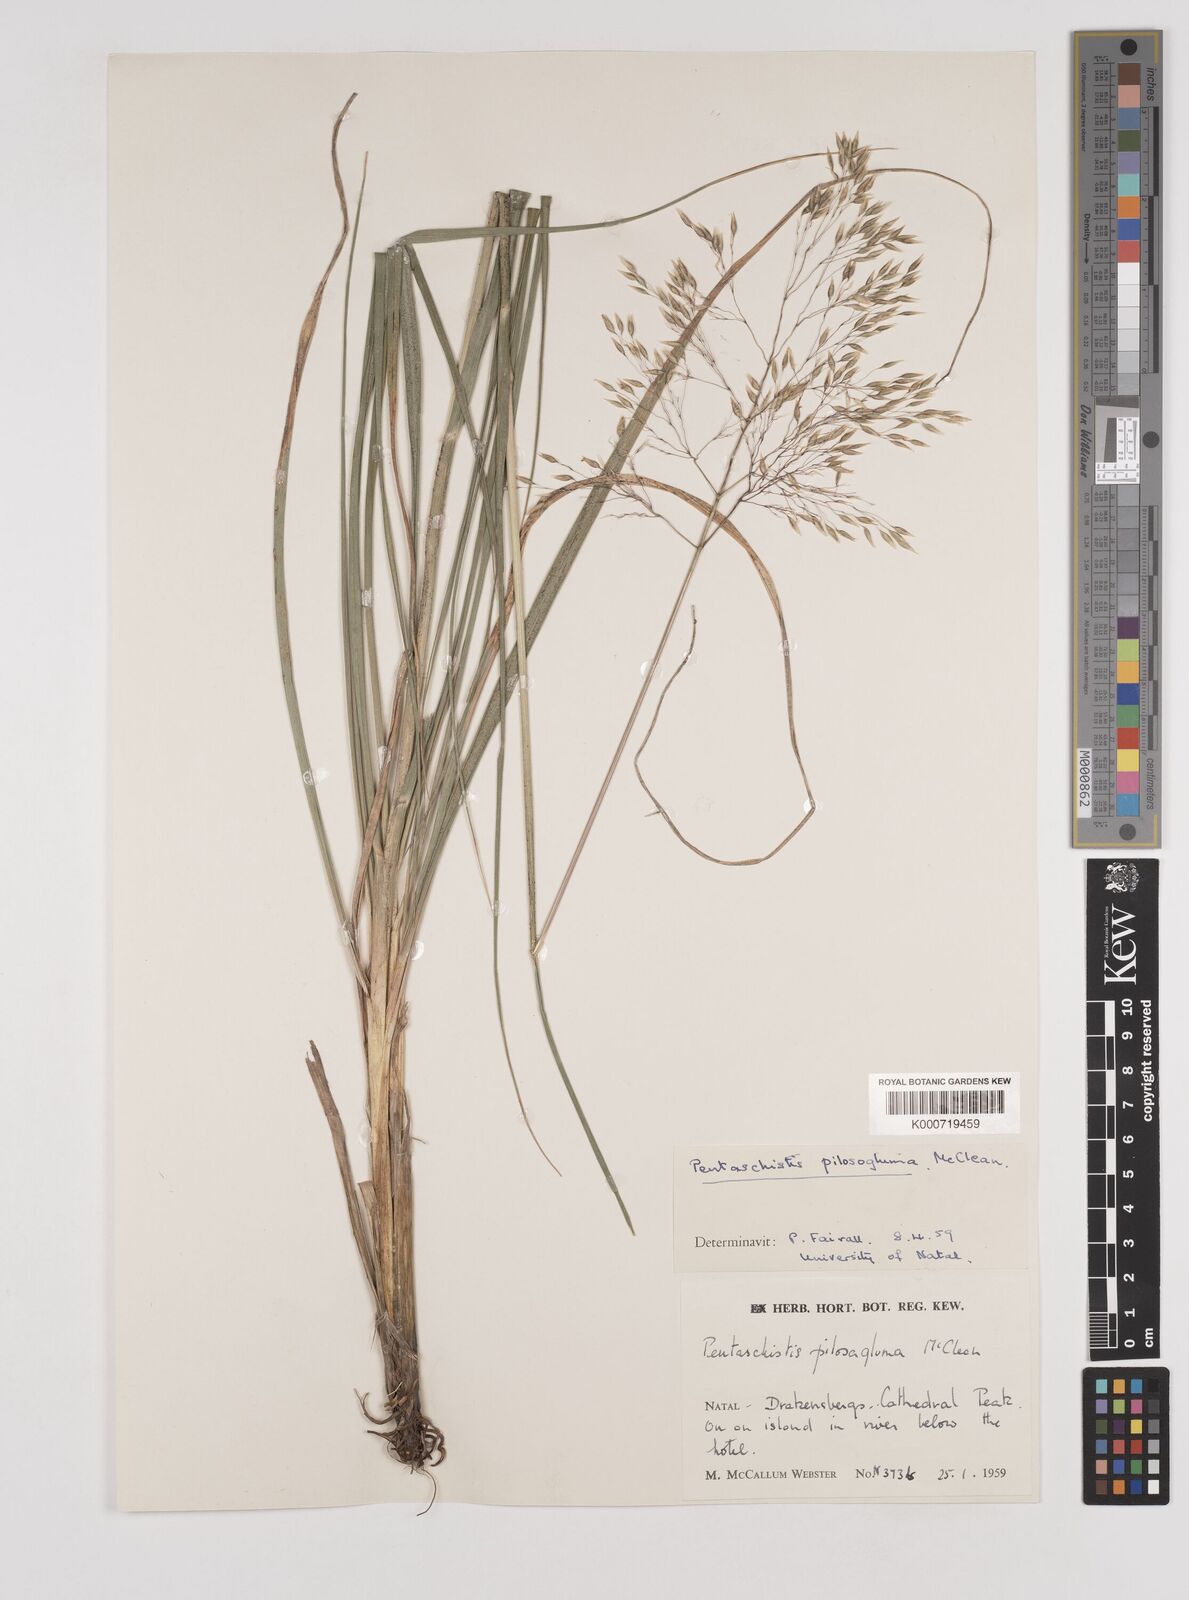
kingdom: Plantae
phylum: Tracheophyta
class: Liliopsida
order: Poales
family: Poaceae
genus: Pentameris
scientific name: Pentameris aurea
